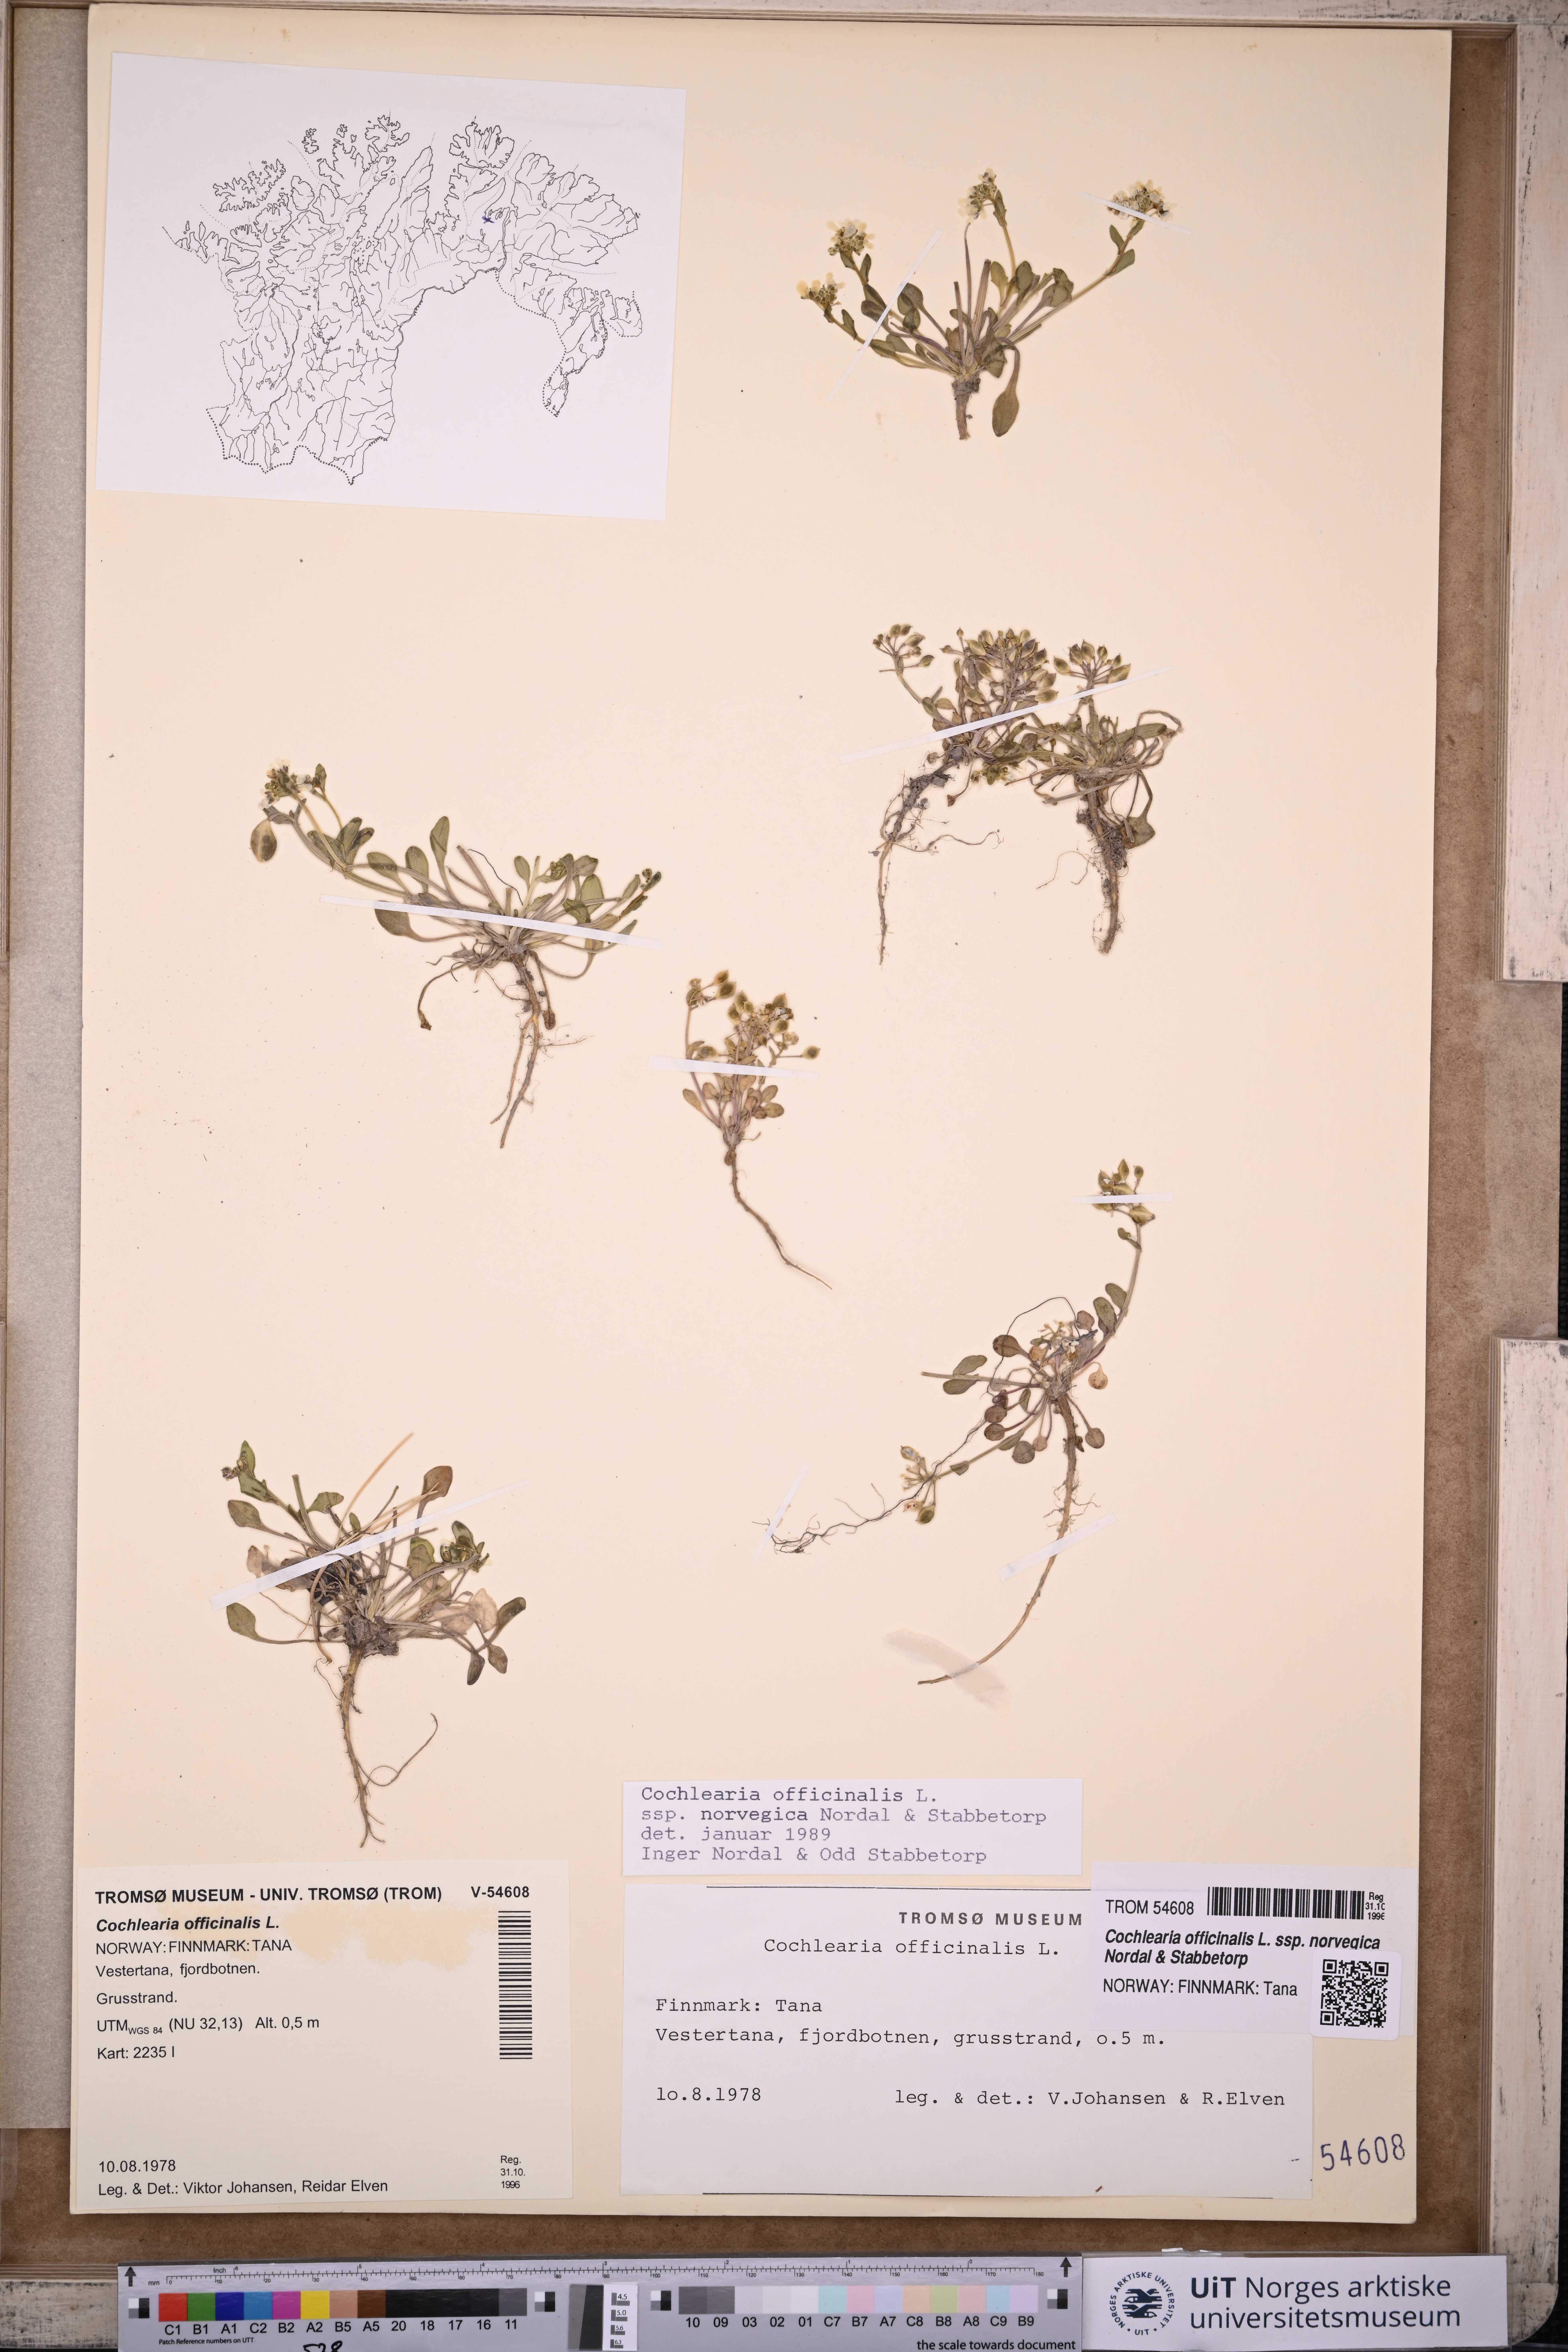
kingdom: Plantae
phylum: Tracheophyta
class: Magnoliopsida
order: Brassicales
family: Brassicaceae
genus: Cochlearia
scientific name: Cochlearia officinalis
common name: Scurvy-grass
